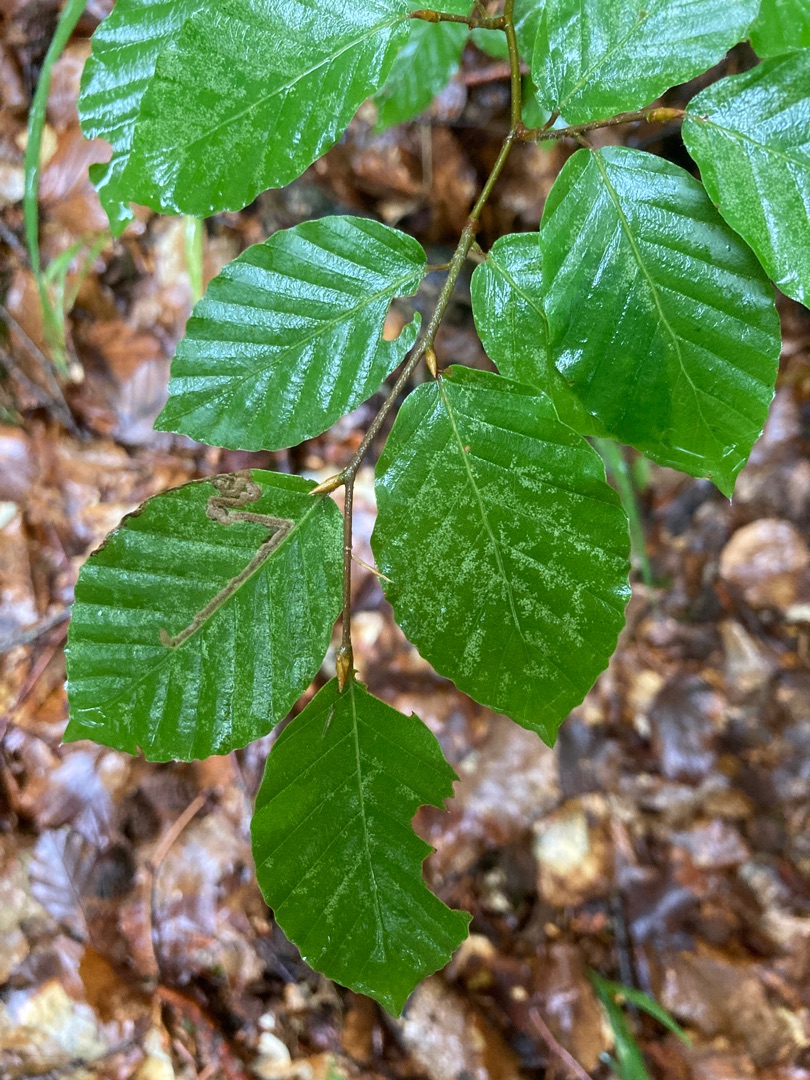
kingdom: Plantae
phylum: Tracheophyta
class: Magnoliopsida
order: Fagales
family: Fagaceae
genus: Fagus
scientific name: Fagus sylvatica
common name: Bøg
